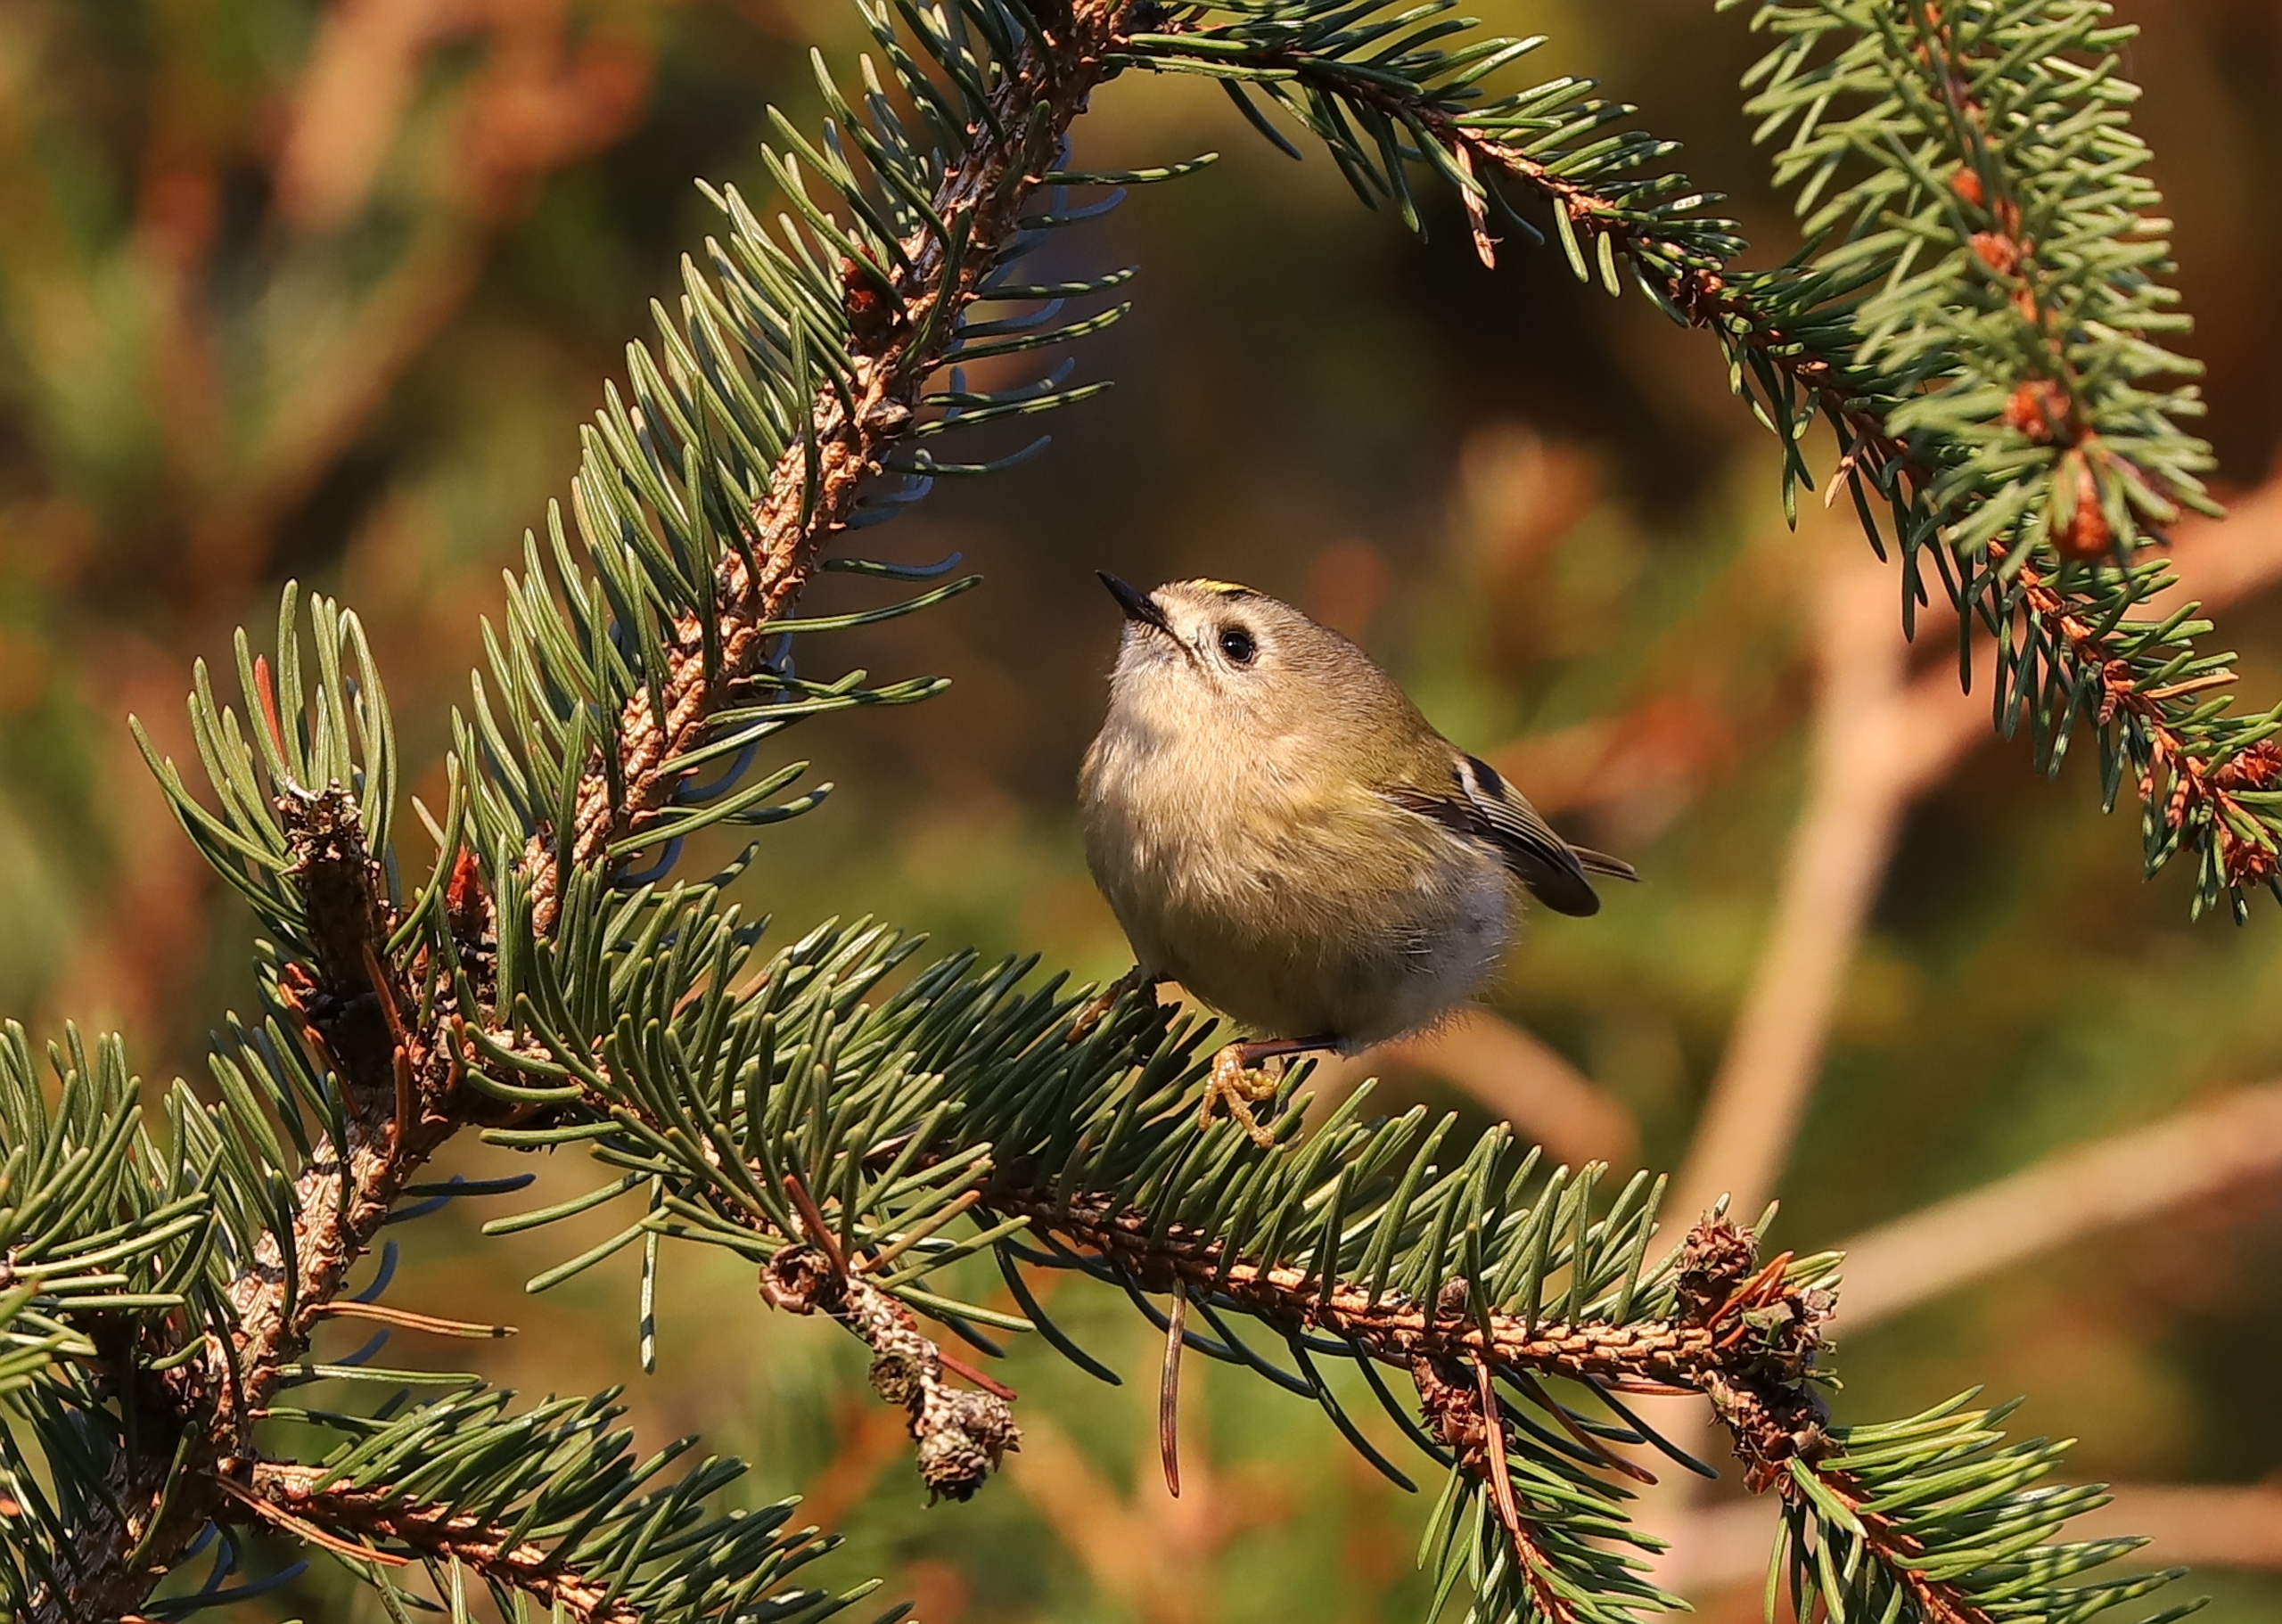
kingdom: Animalia
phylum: Chordata
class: Aves
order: Passeriformes
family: Regulidae
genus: Regulus
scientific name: Regulus regulus
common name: Fuglekonge
